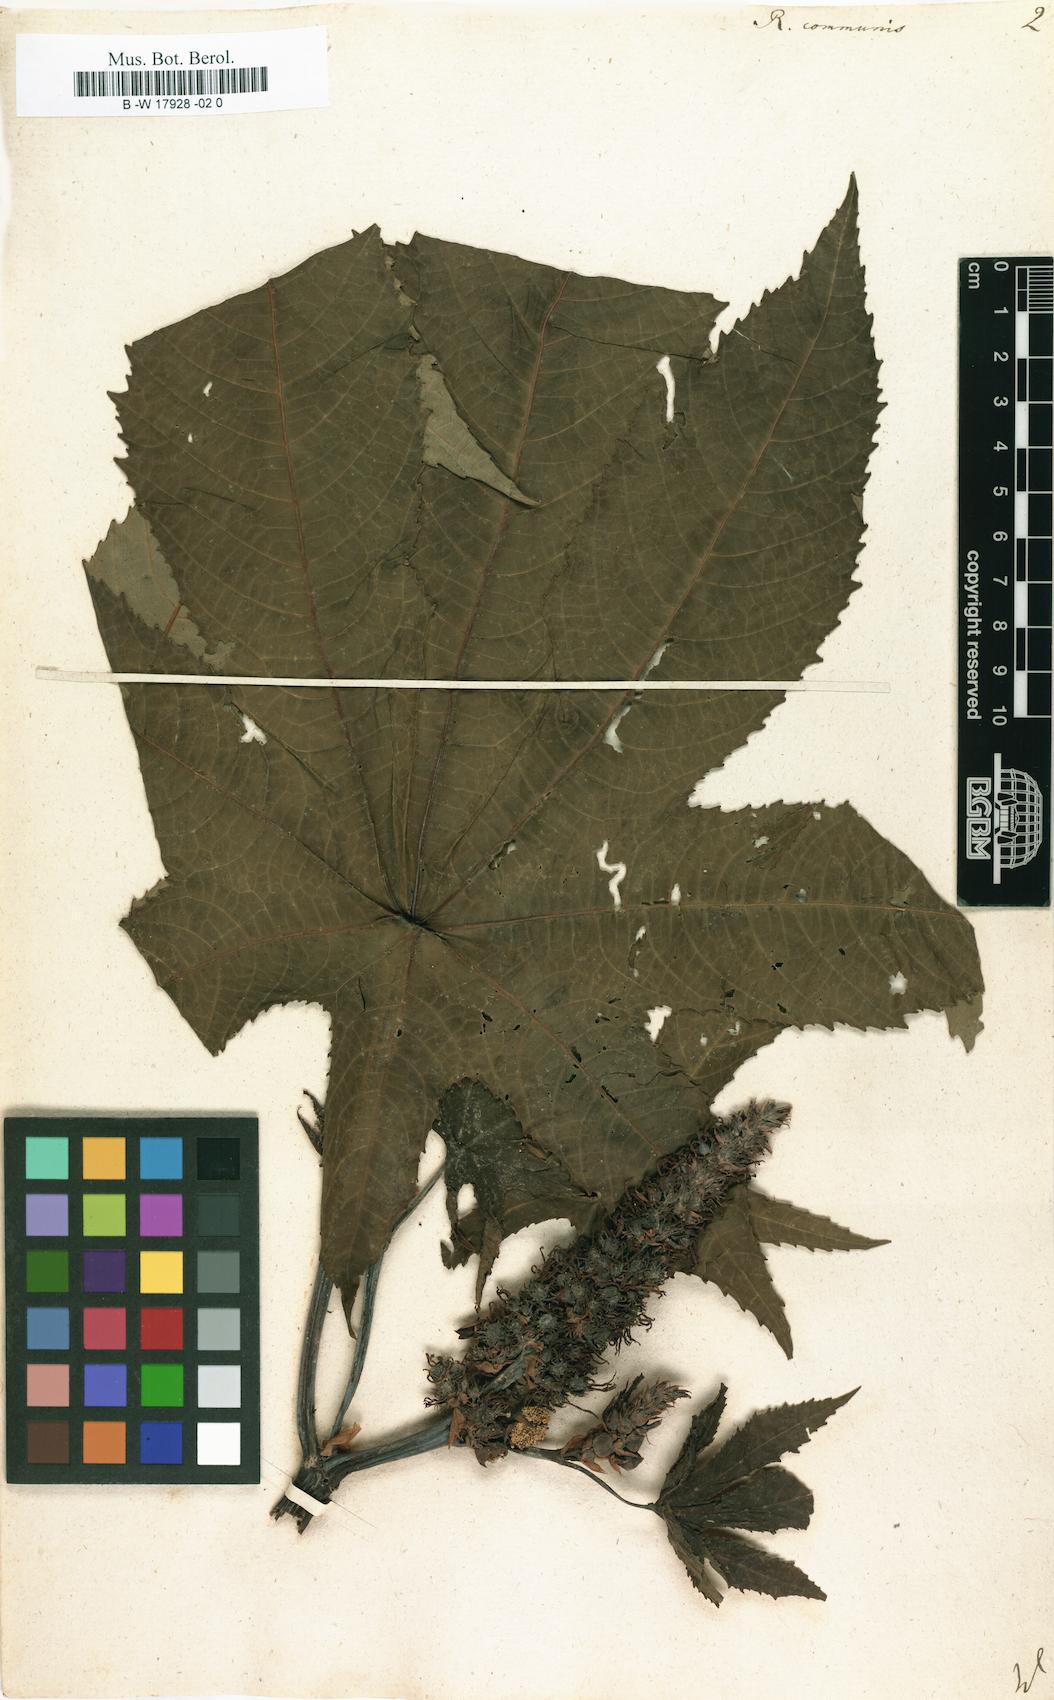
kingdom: Plantae
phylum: Tracheophyta
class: Magnoliopsida
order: Malpighiales
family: Euphorbiaceae
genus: Ricinus
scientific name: Ricinus communis
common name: Castor-oil-plant
